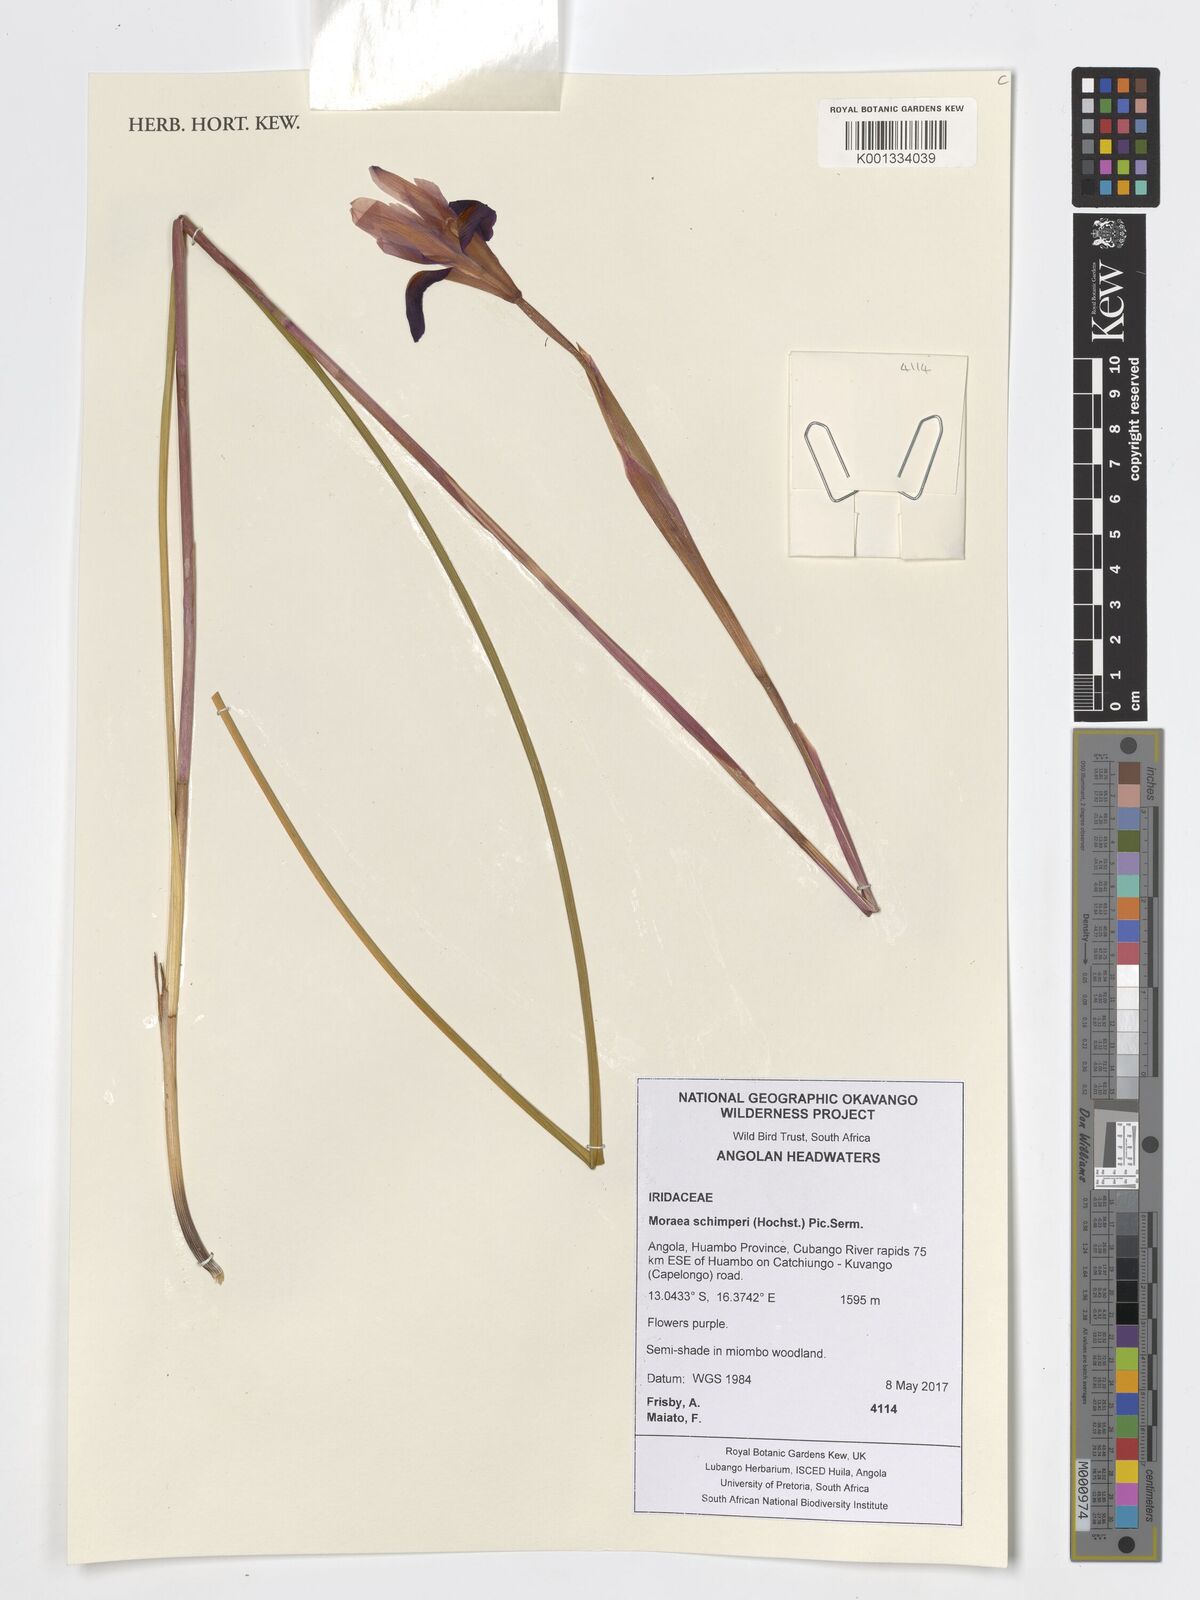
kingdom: Plantae
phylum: Tracheophyta
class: Liliopsida
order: Asparagales
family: Iridaceae
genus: Moraea
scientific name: Moraea schimperi
